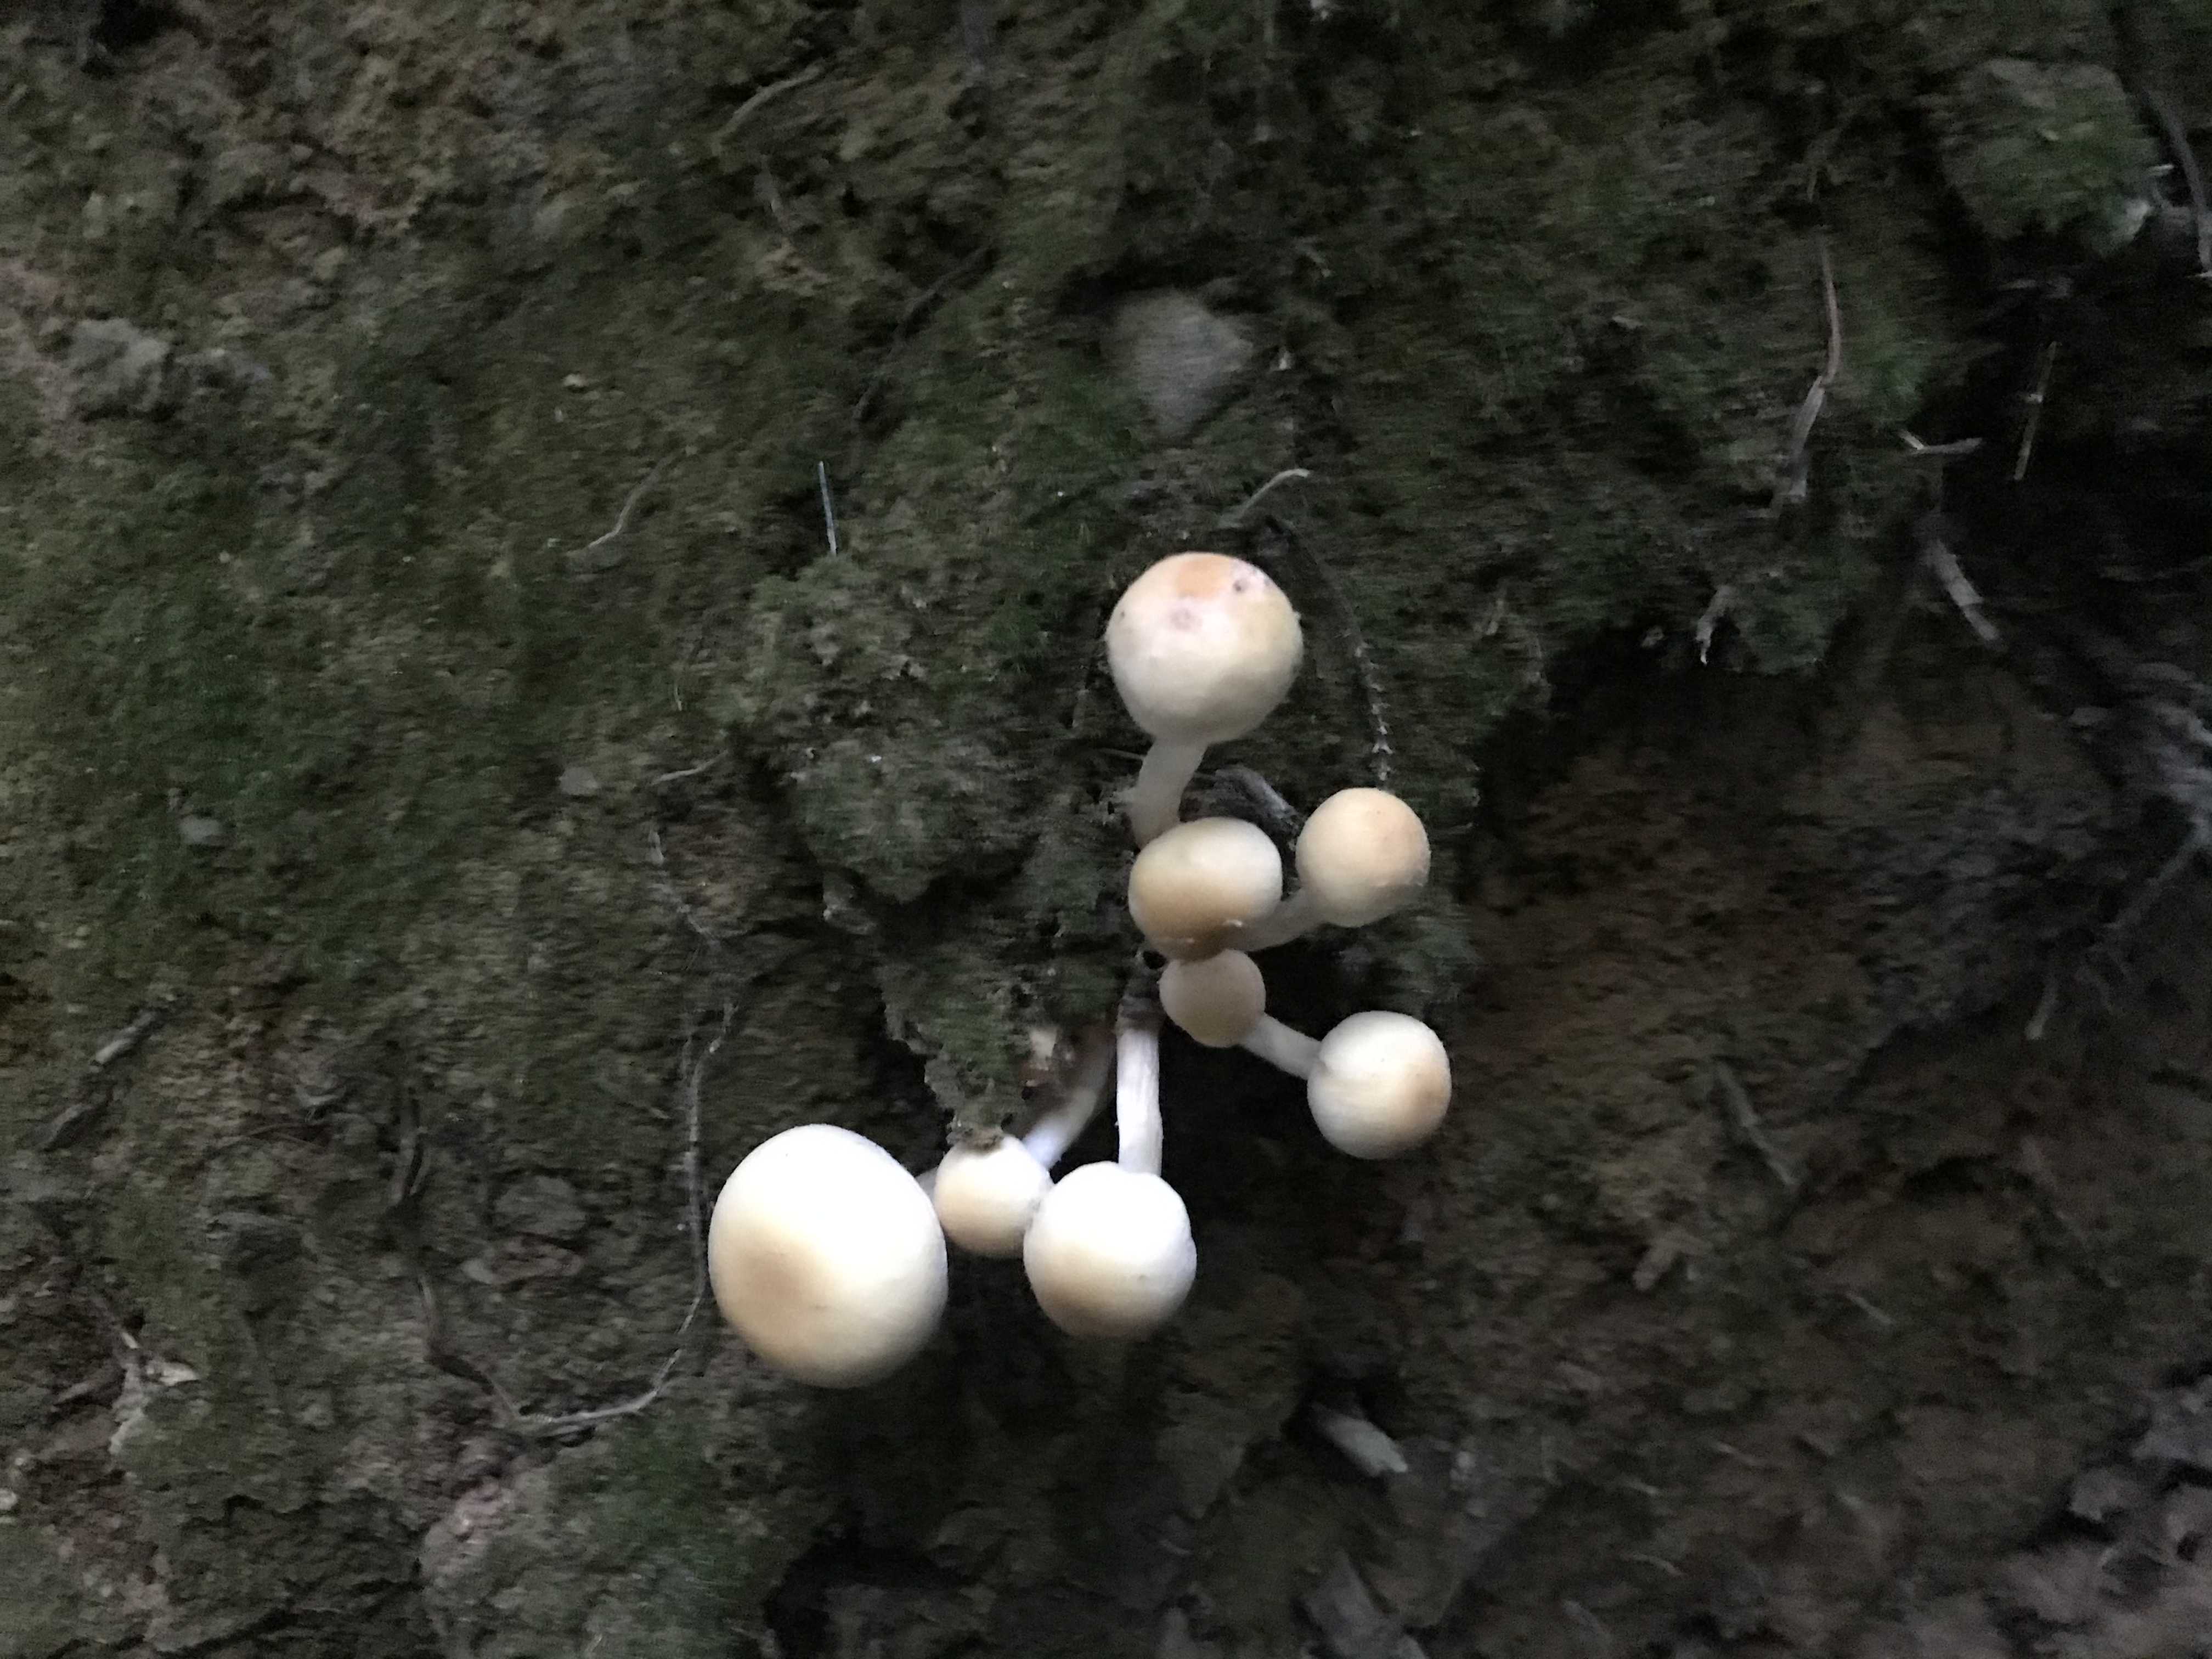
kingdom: Fungi
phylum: Basidiomycota
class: Agaricomycetes
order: Agaricales
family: Strophariaceae
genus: Hypholoma
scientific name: Hypholoma
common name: svovlhat
